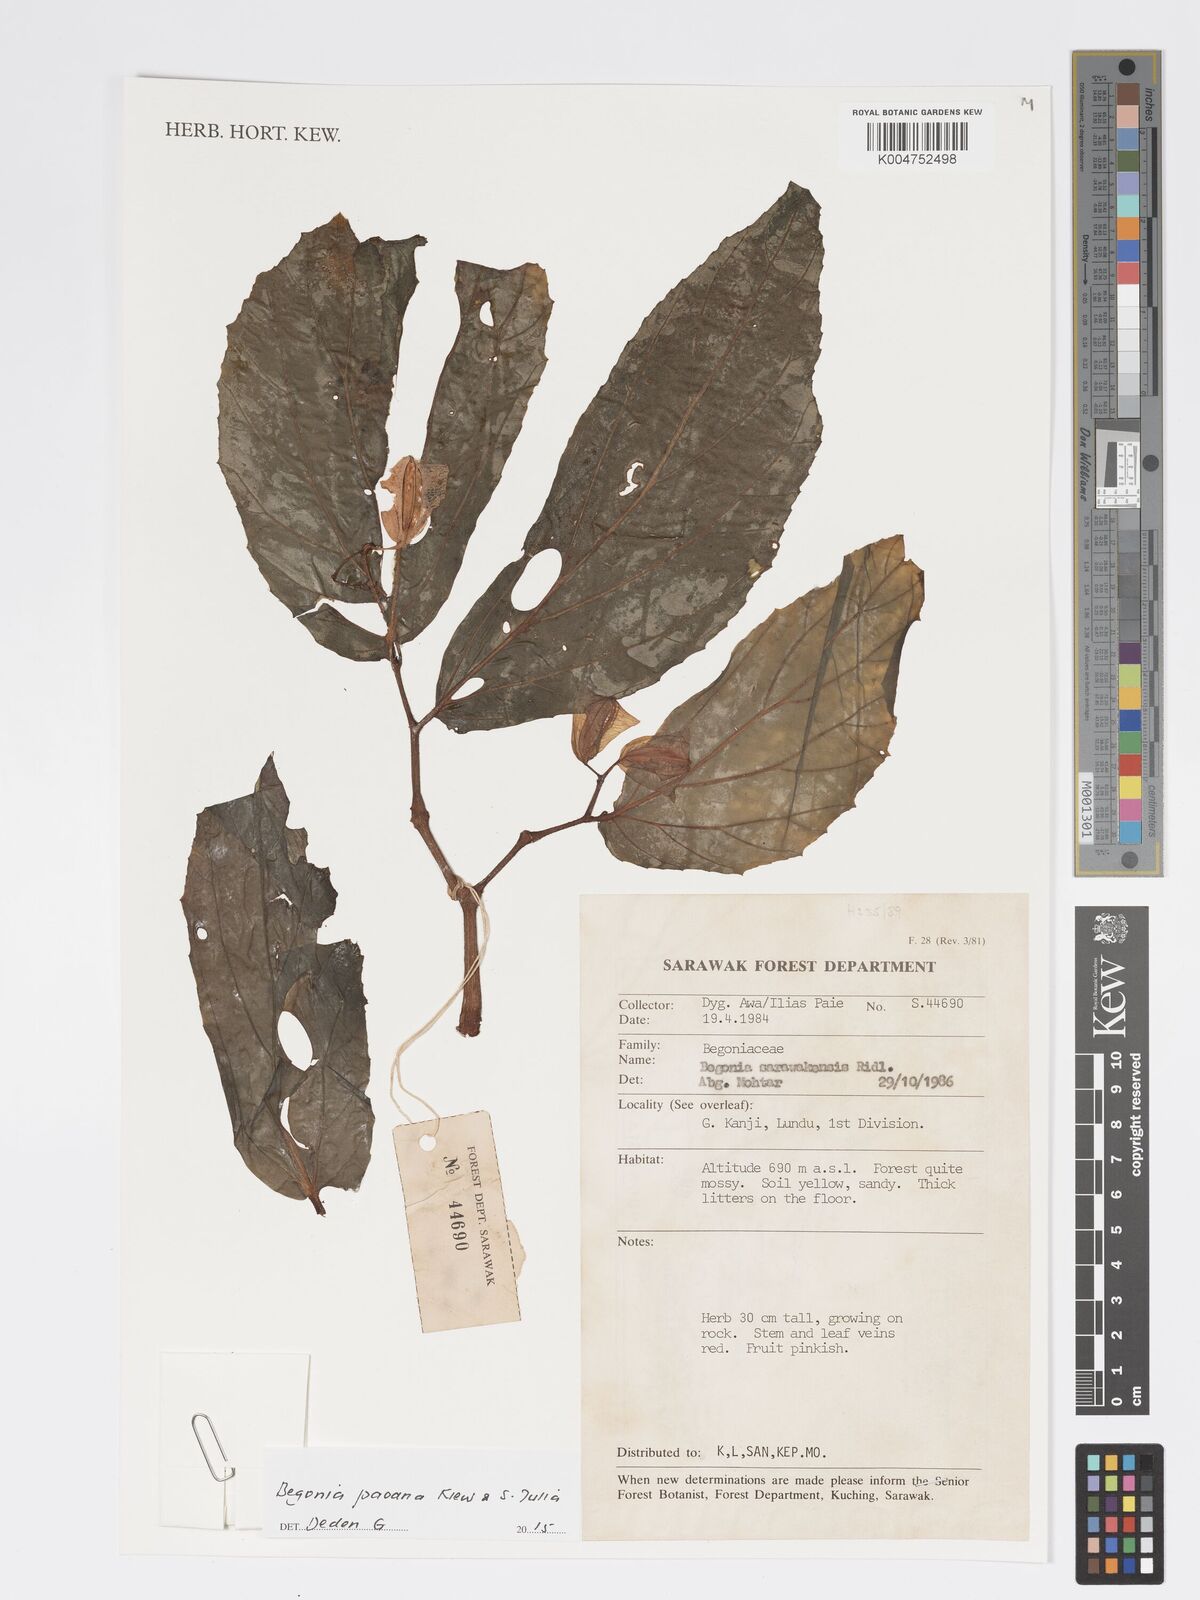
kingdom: Plantae
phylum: Tracheophyta
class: Magnoliopsida
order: Cucurbitales
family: Begoniaceae
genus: Begonia
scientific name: Begonia paoana
